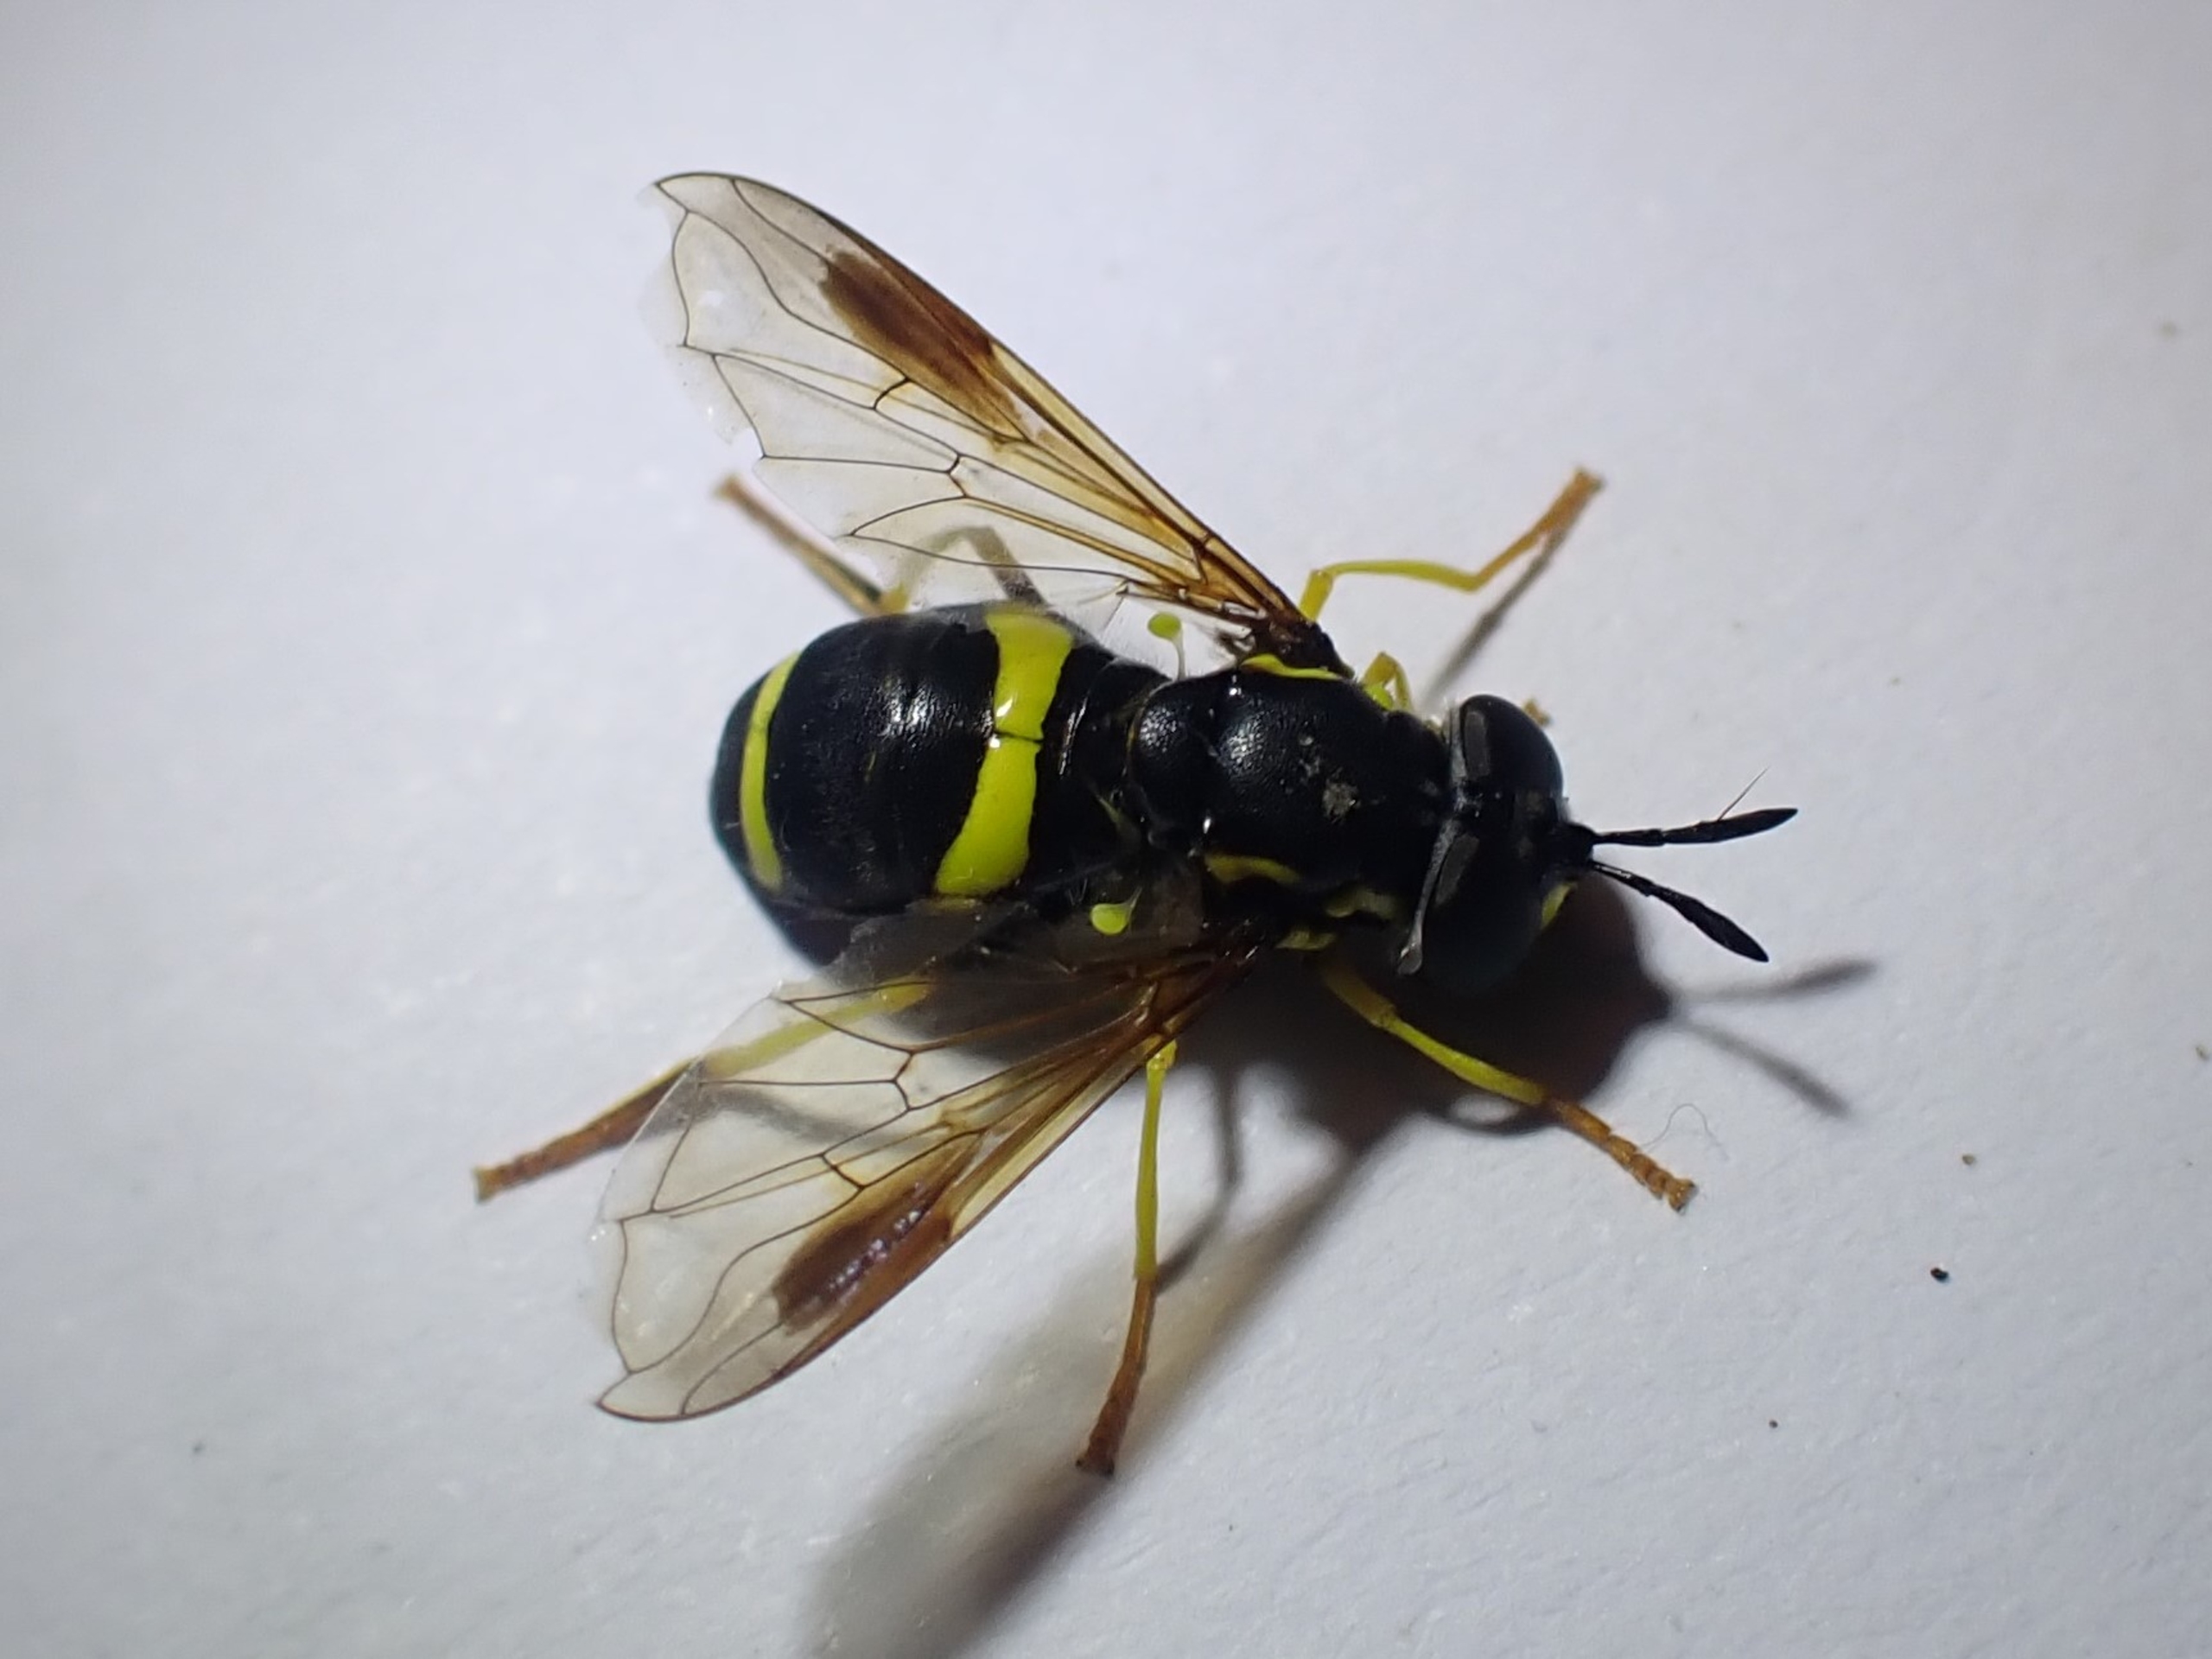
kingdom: Animalia
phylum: Arthropoda
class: Insecta
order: Diptera
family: Syrphidae
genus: Chrysotoxum
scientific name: Chrysotoxum bicincta
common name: Tobåndet hvepsesvirreflue
